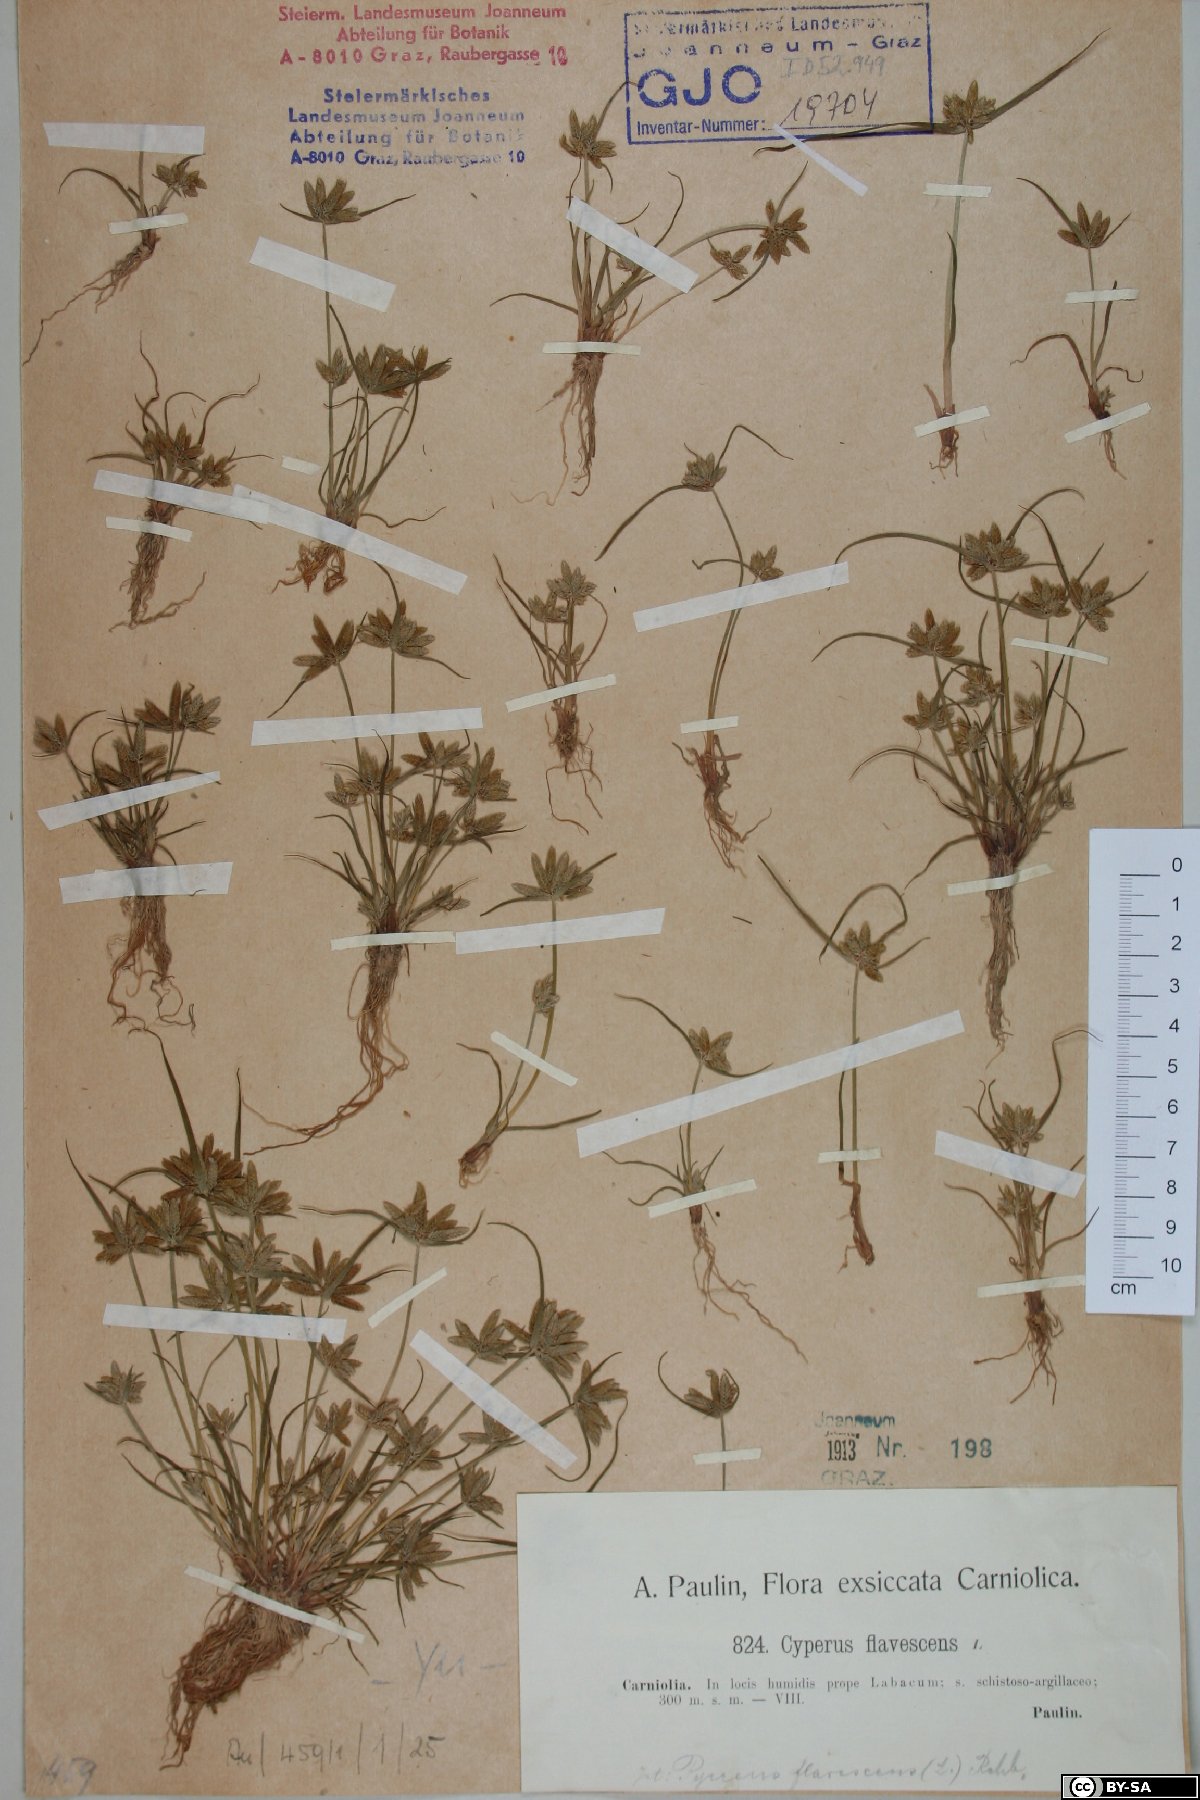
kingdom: Plantae
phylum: Tracheophyta
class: Liliopsida
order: Poales
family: Cyperaceae
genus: Cyperus
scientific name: Cyperus flavescens
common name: Yellow galingale
